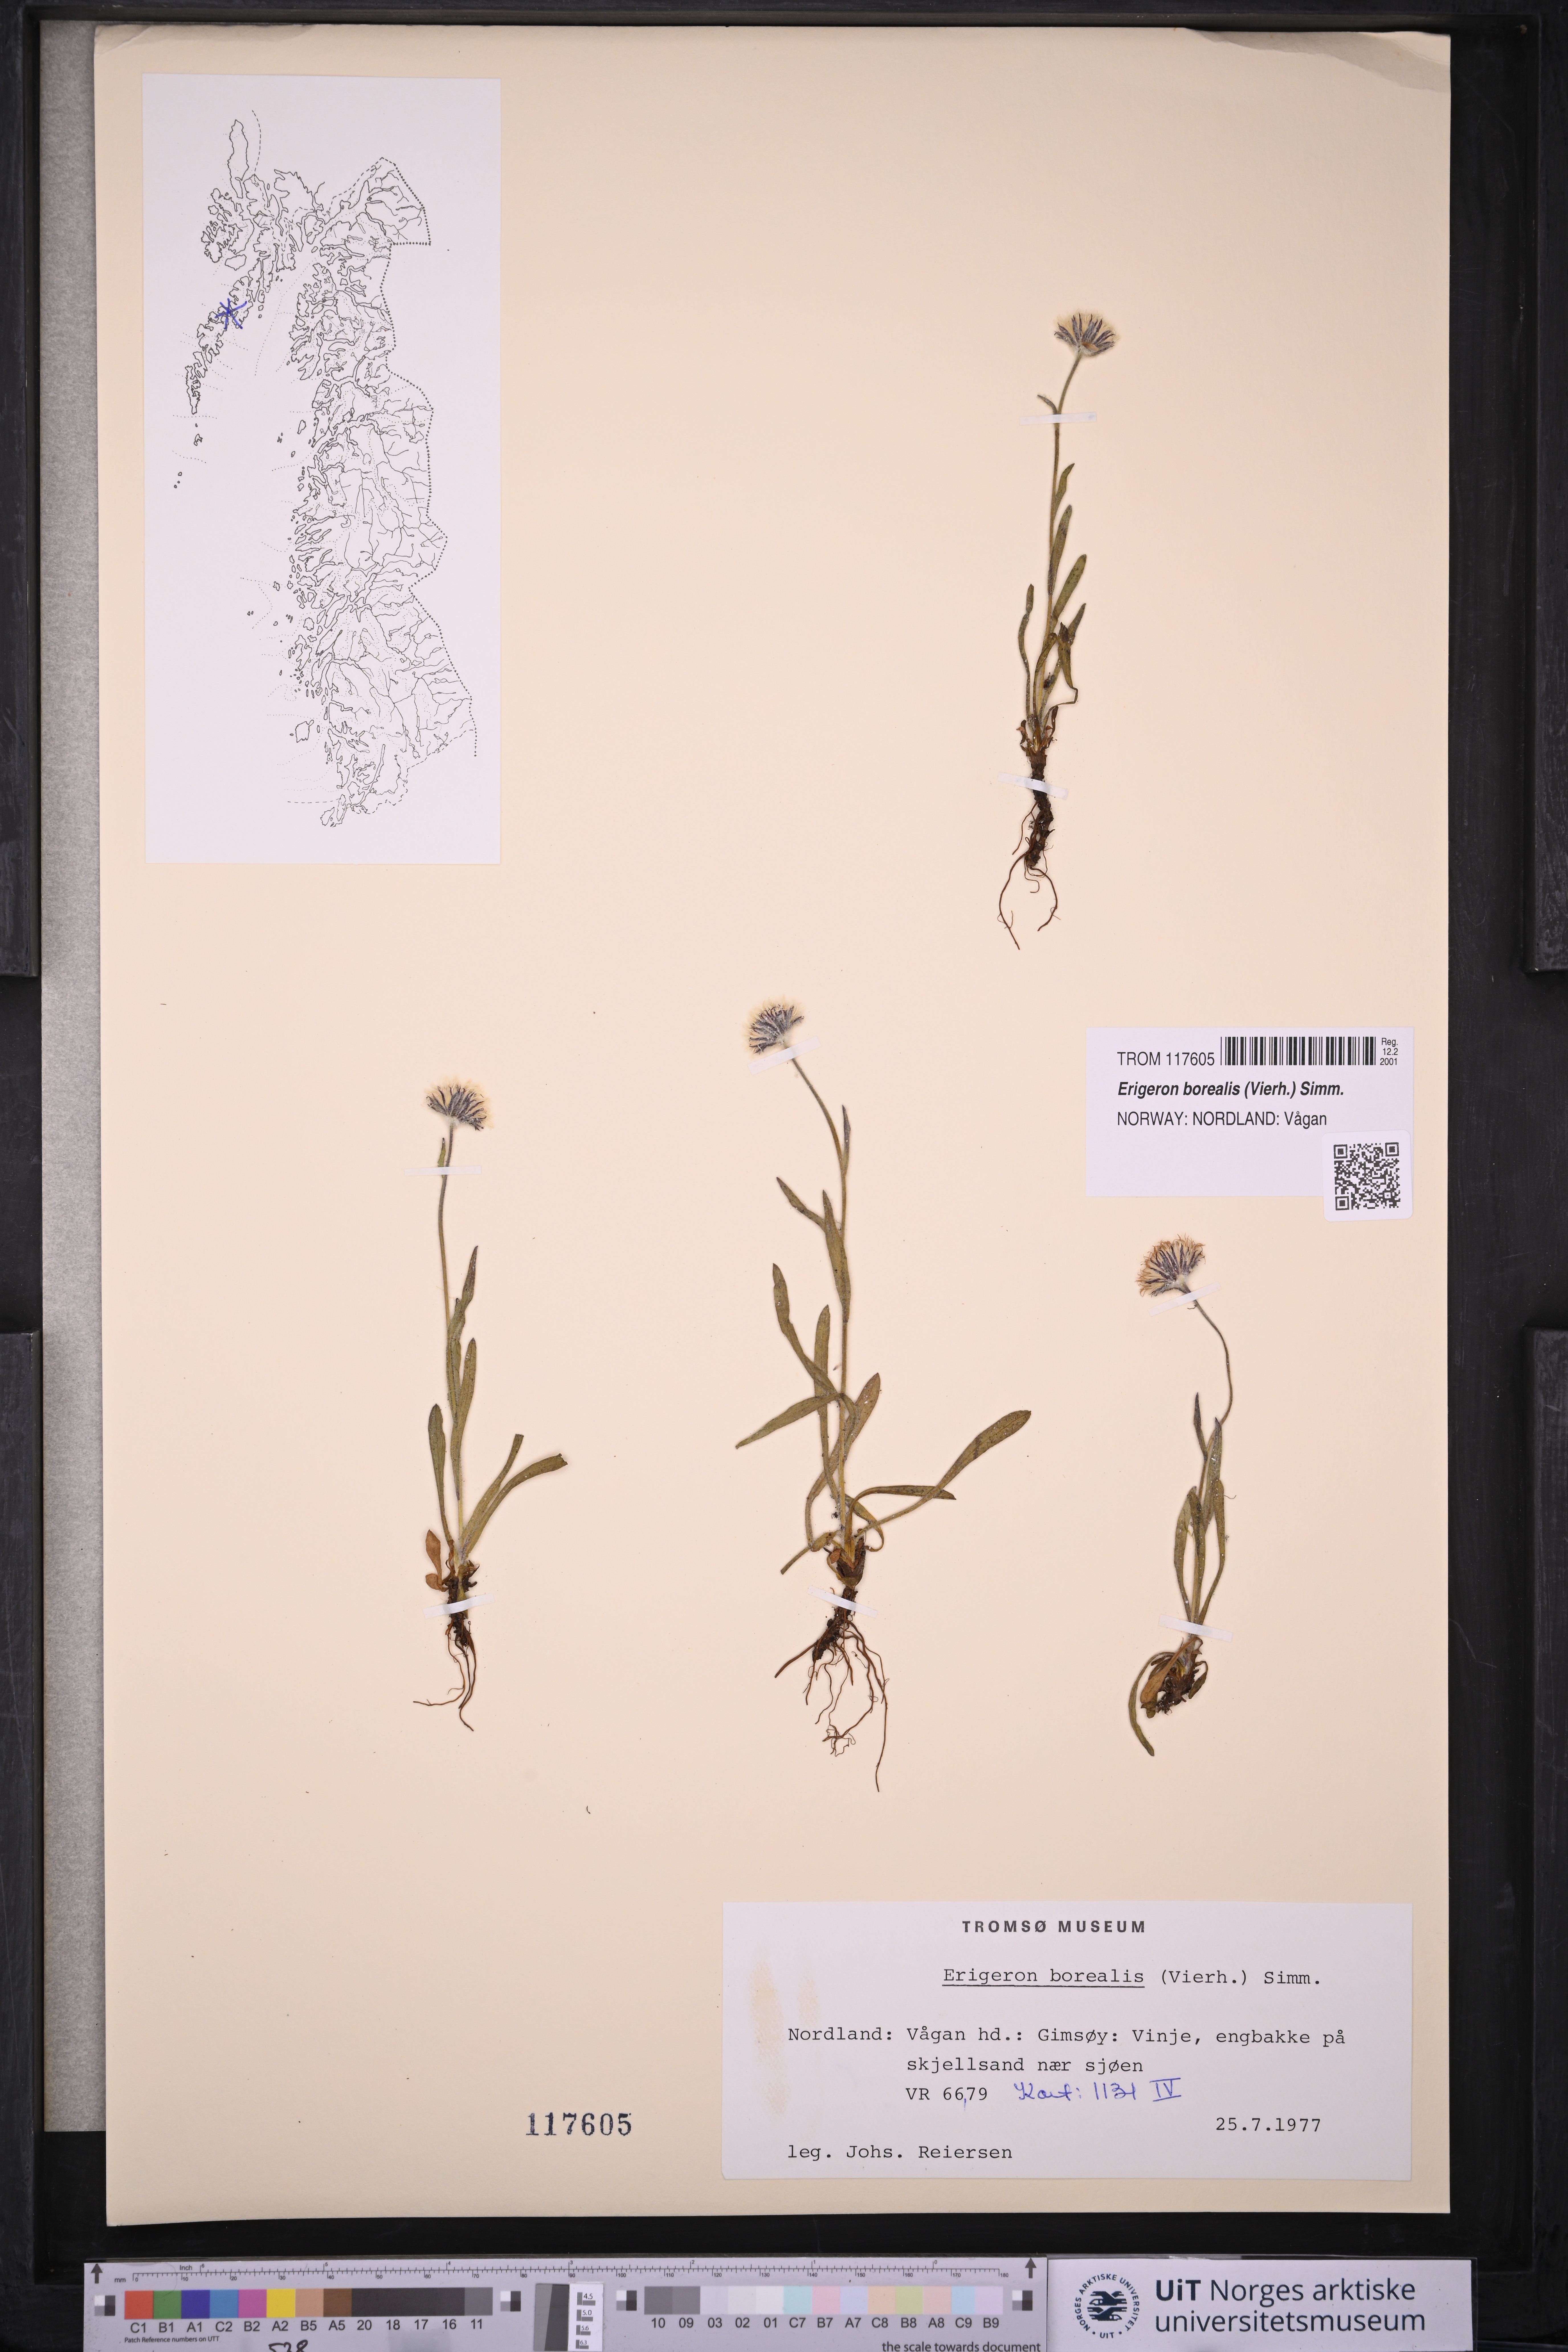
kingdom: Plantae
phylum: Tracheophyta
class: Magnoliopsida
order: Asterales
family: Asteraceae
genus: Erigeron
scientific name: Erigeron borealis
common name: Alpine fleabane
